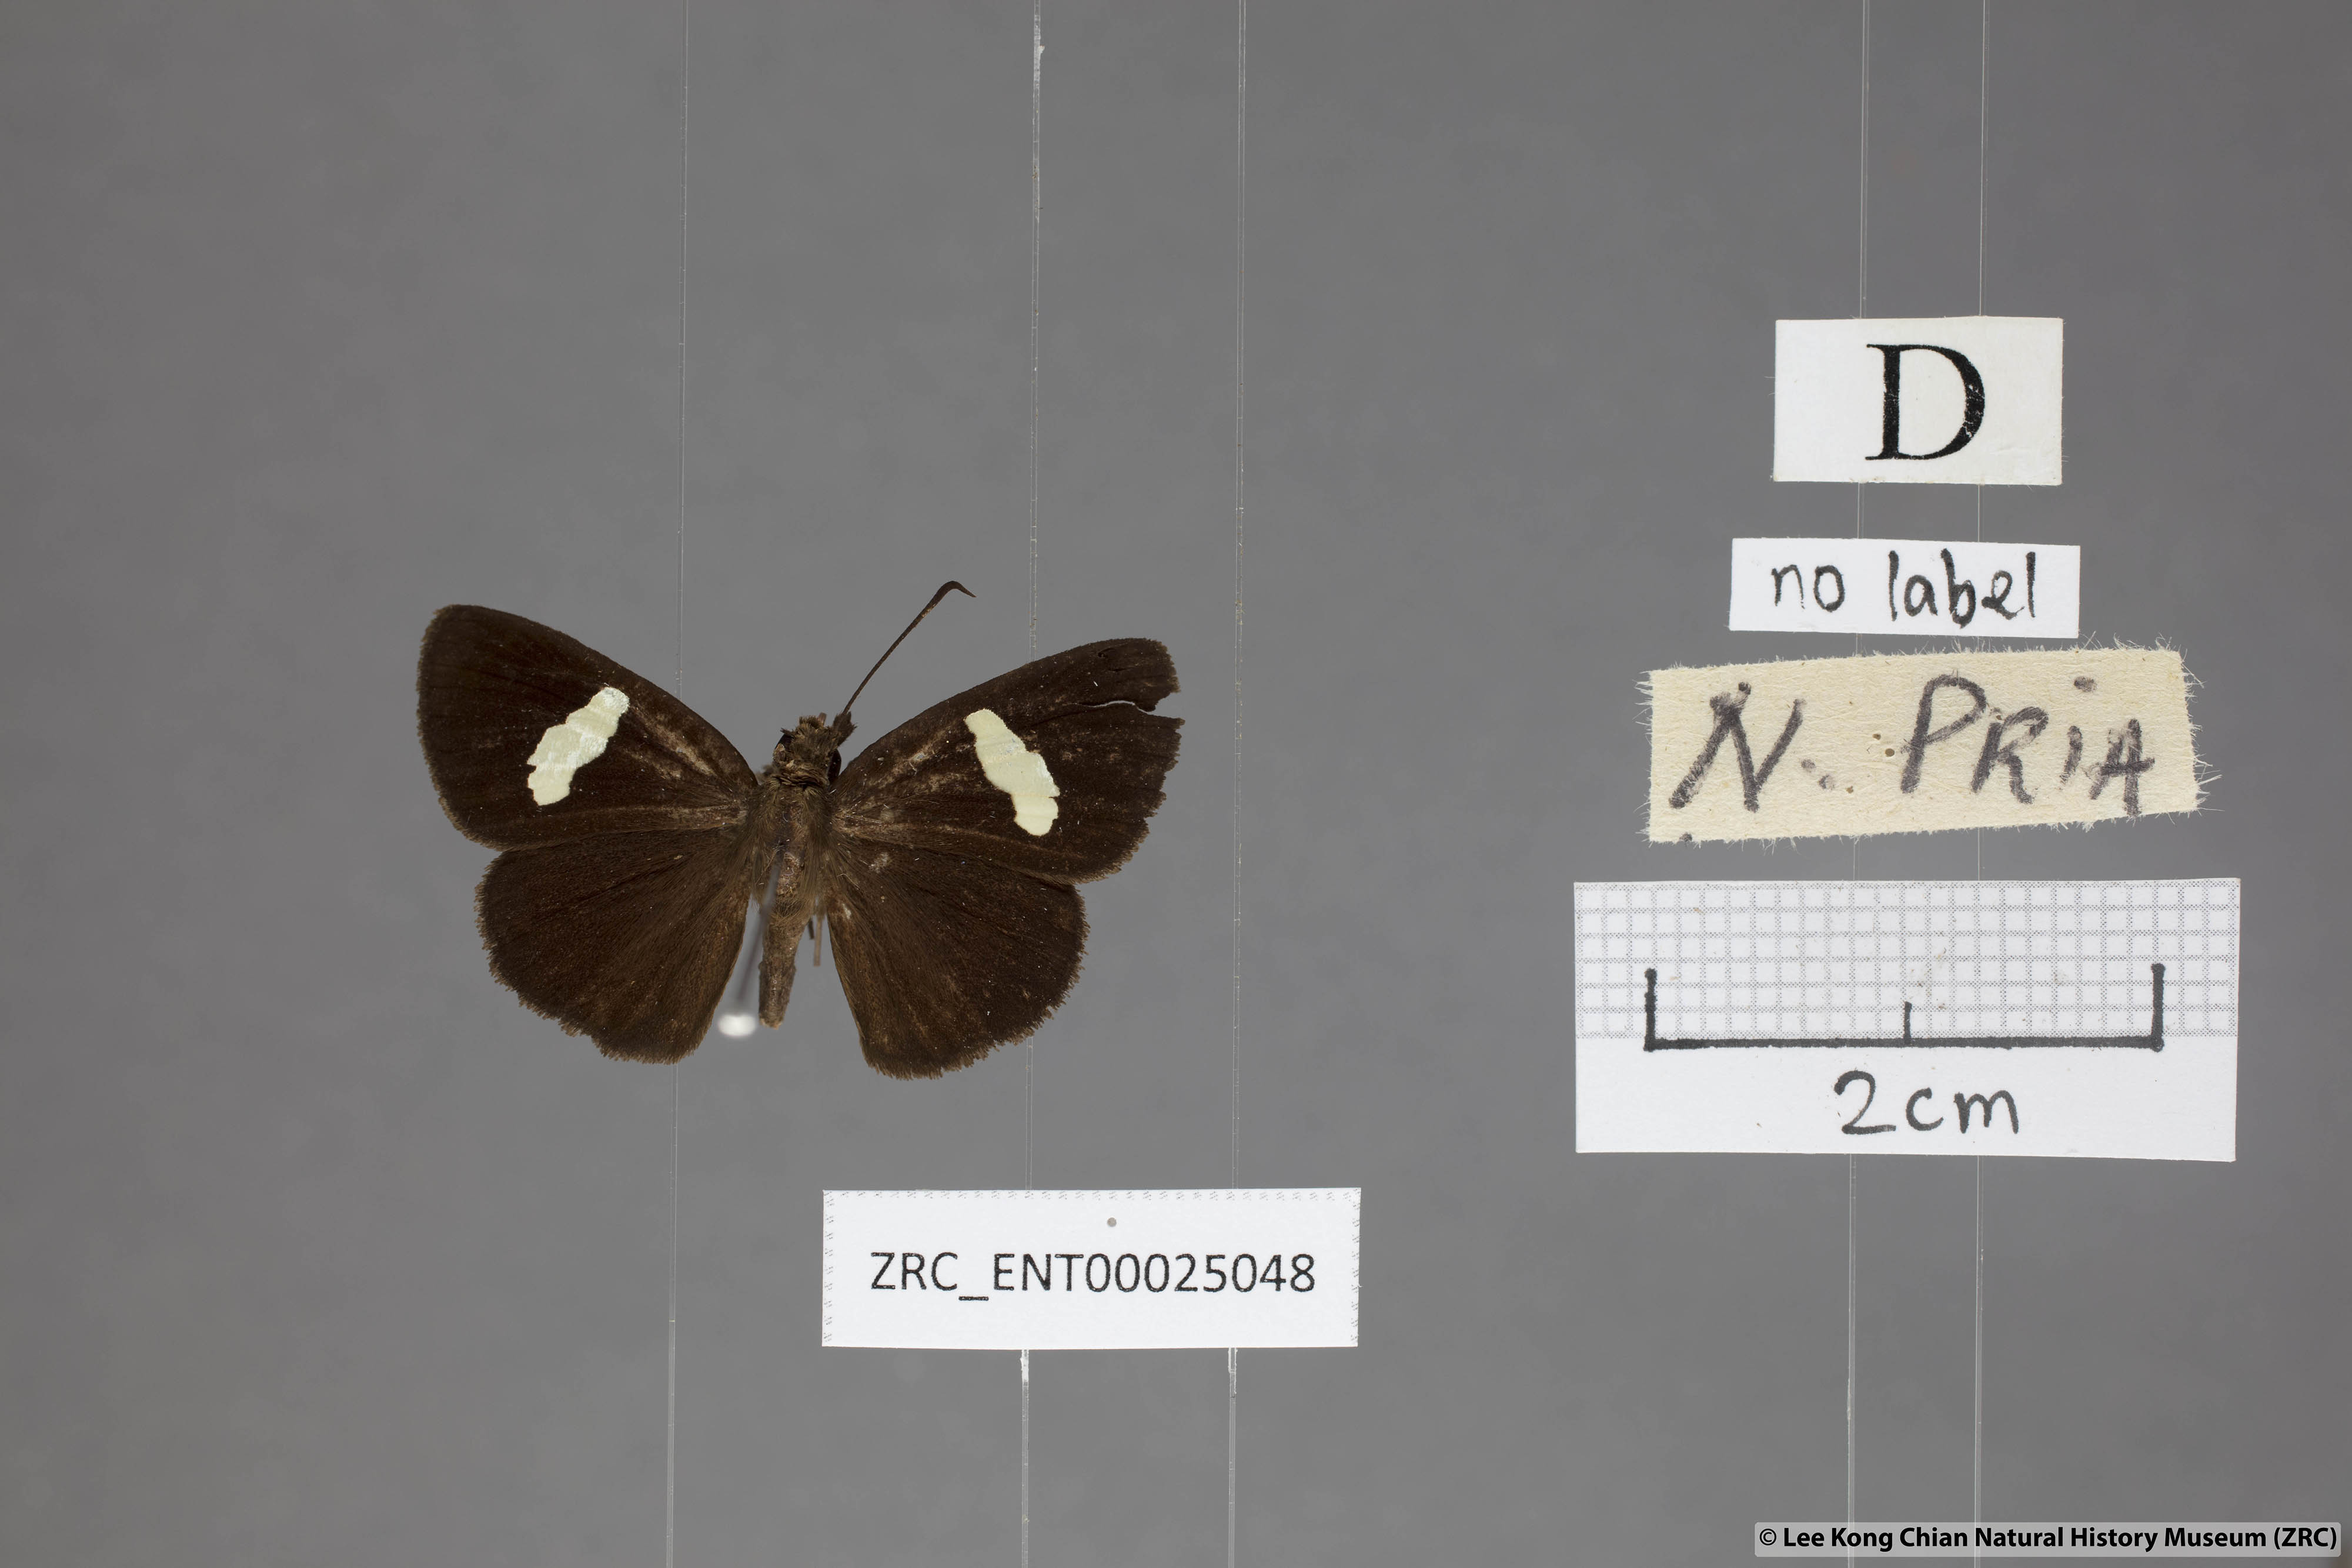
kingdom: Animalia
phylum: Arthropoda
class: Insecta
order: Lepidoptera
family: Hesperiidae
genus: Notocrypta
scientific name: Notocrypta pria
